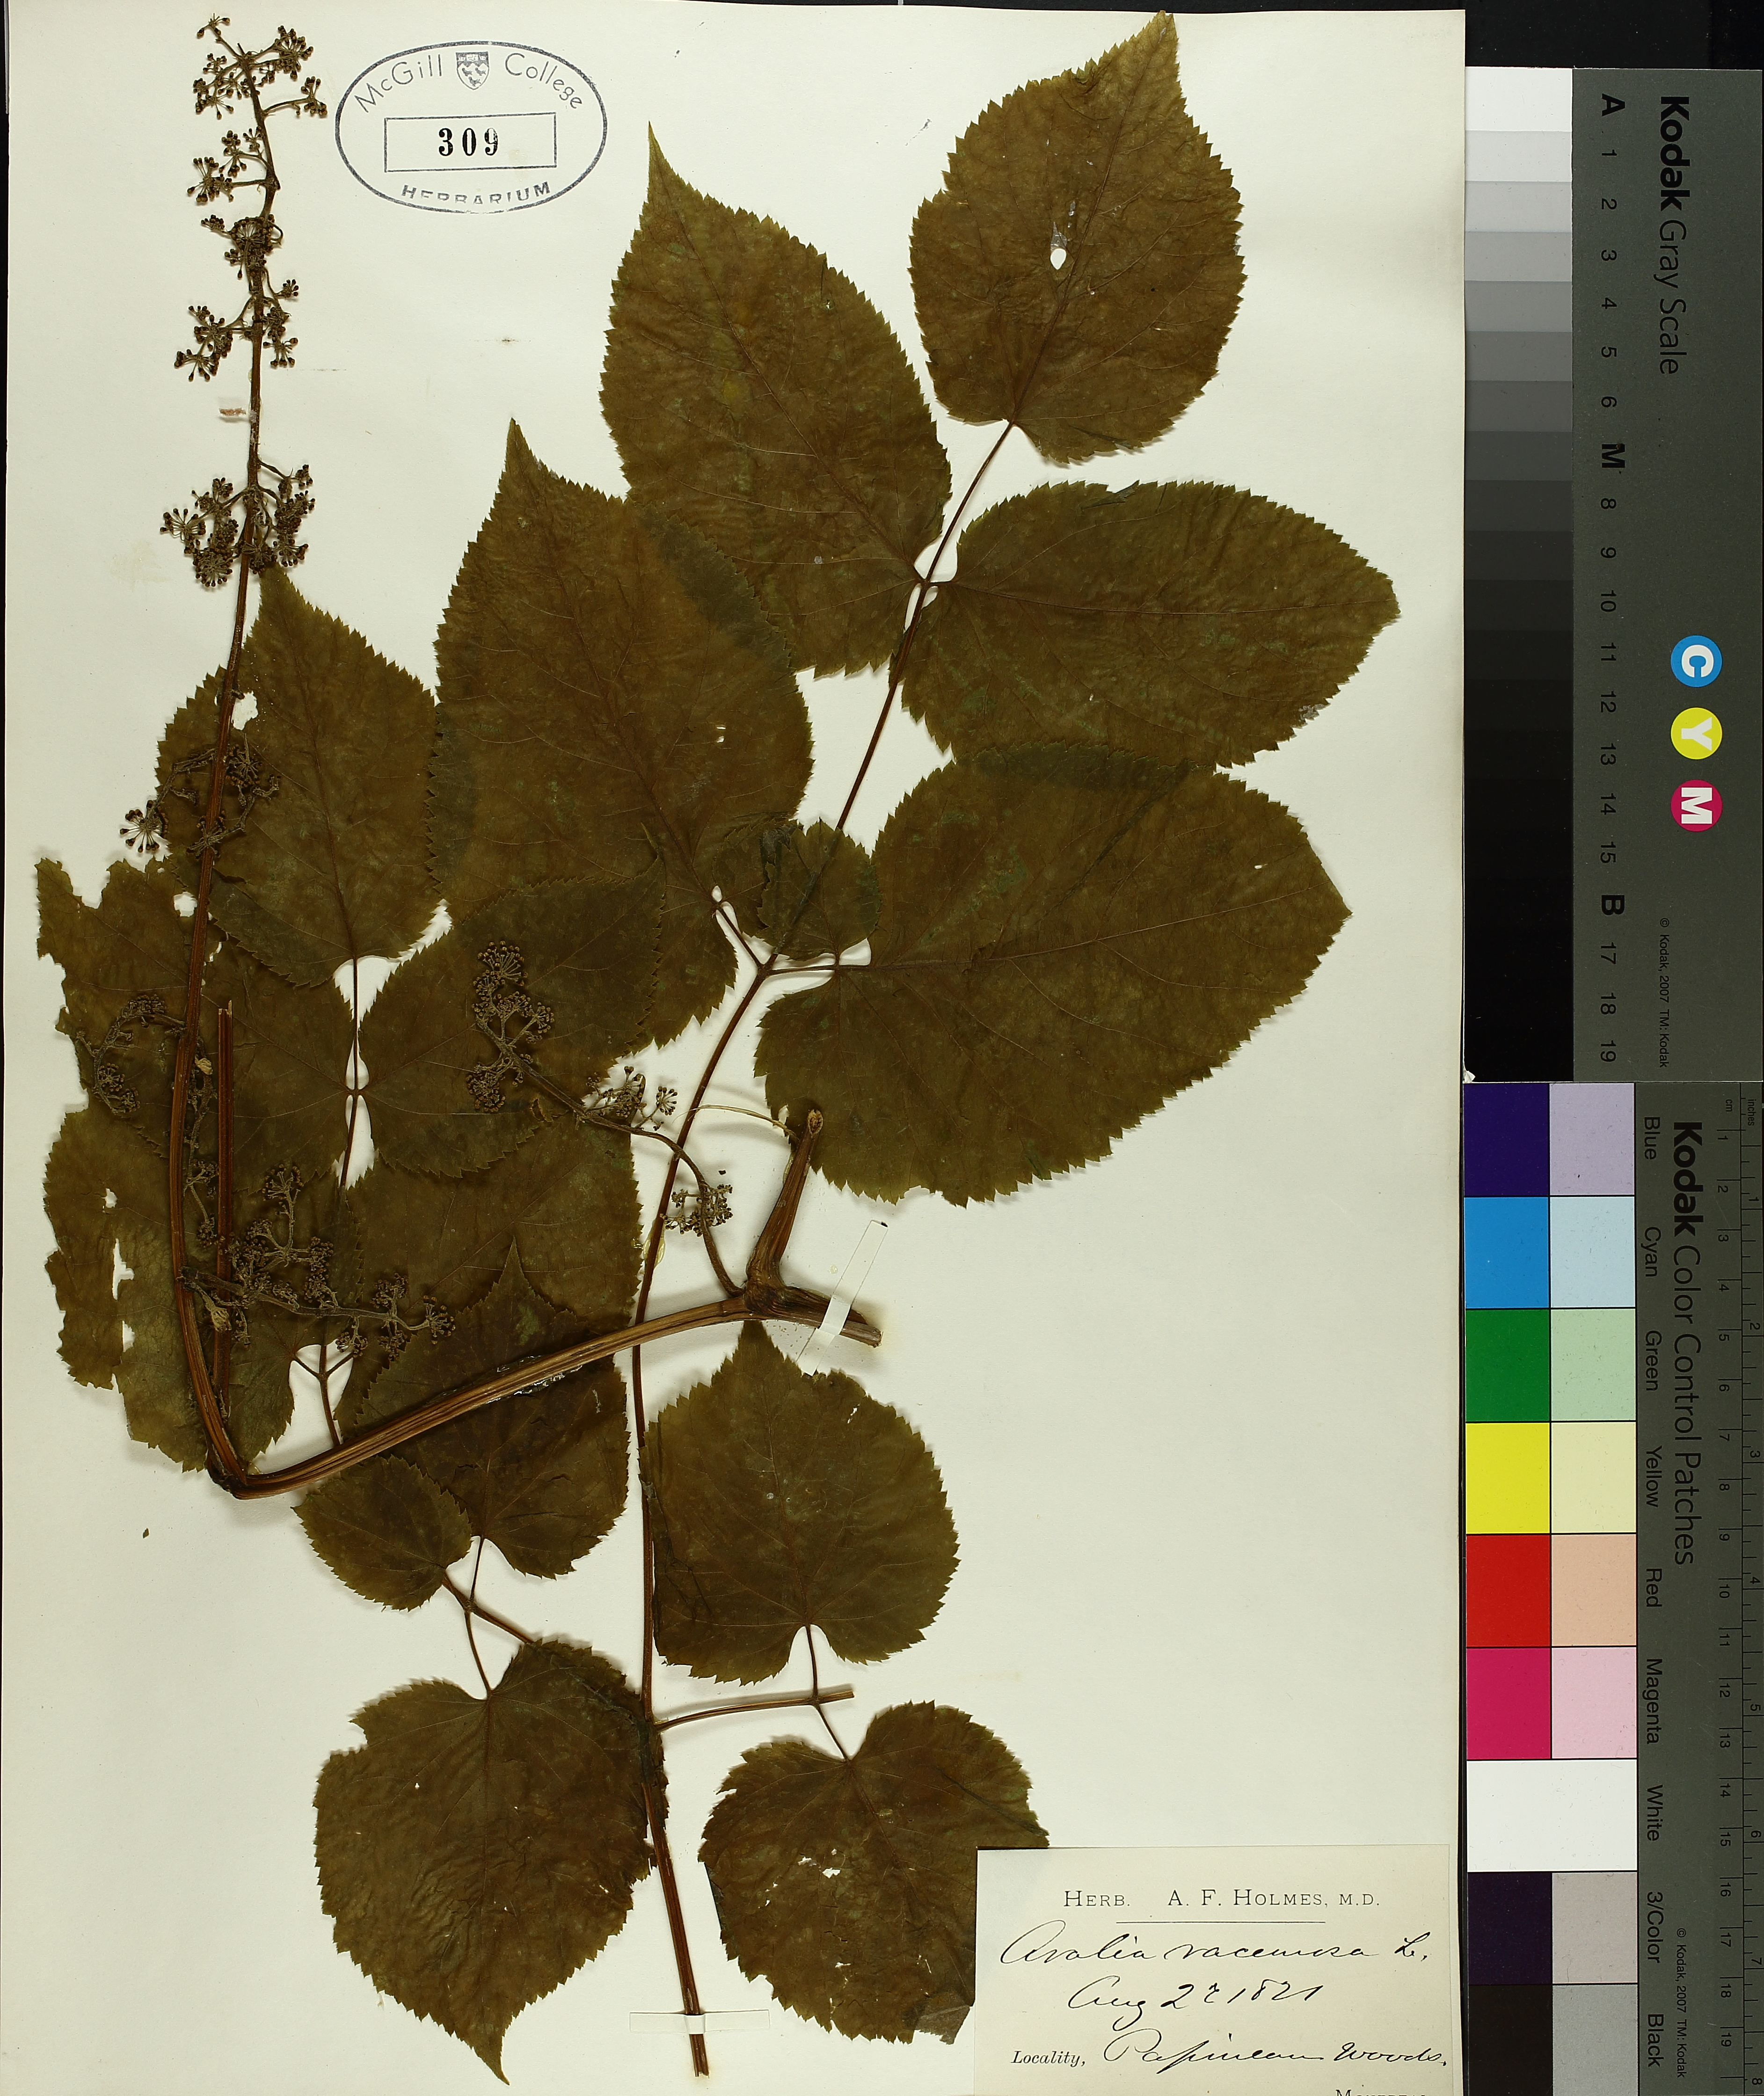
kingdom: Plantae
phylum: Tracheophyta
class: Magnoliopsida
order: Apiales
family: Araliaceae
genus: Aralia
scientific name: Aralia racemosa
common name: American-spikenard
